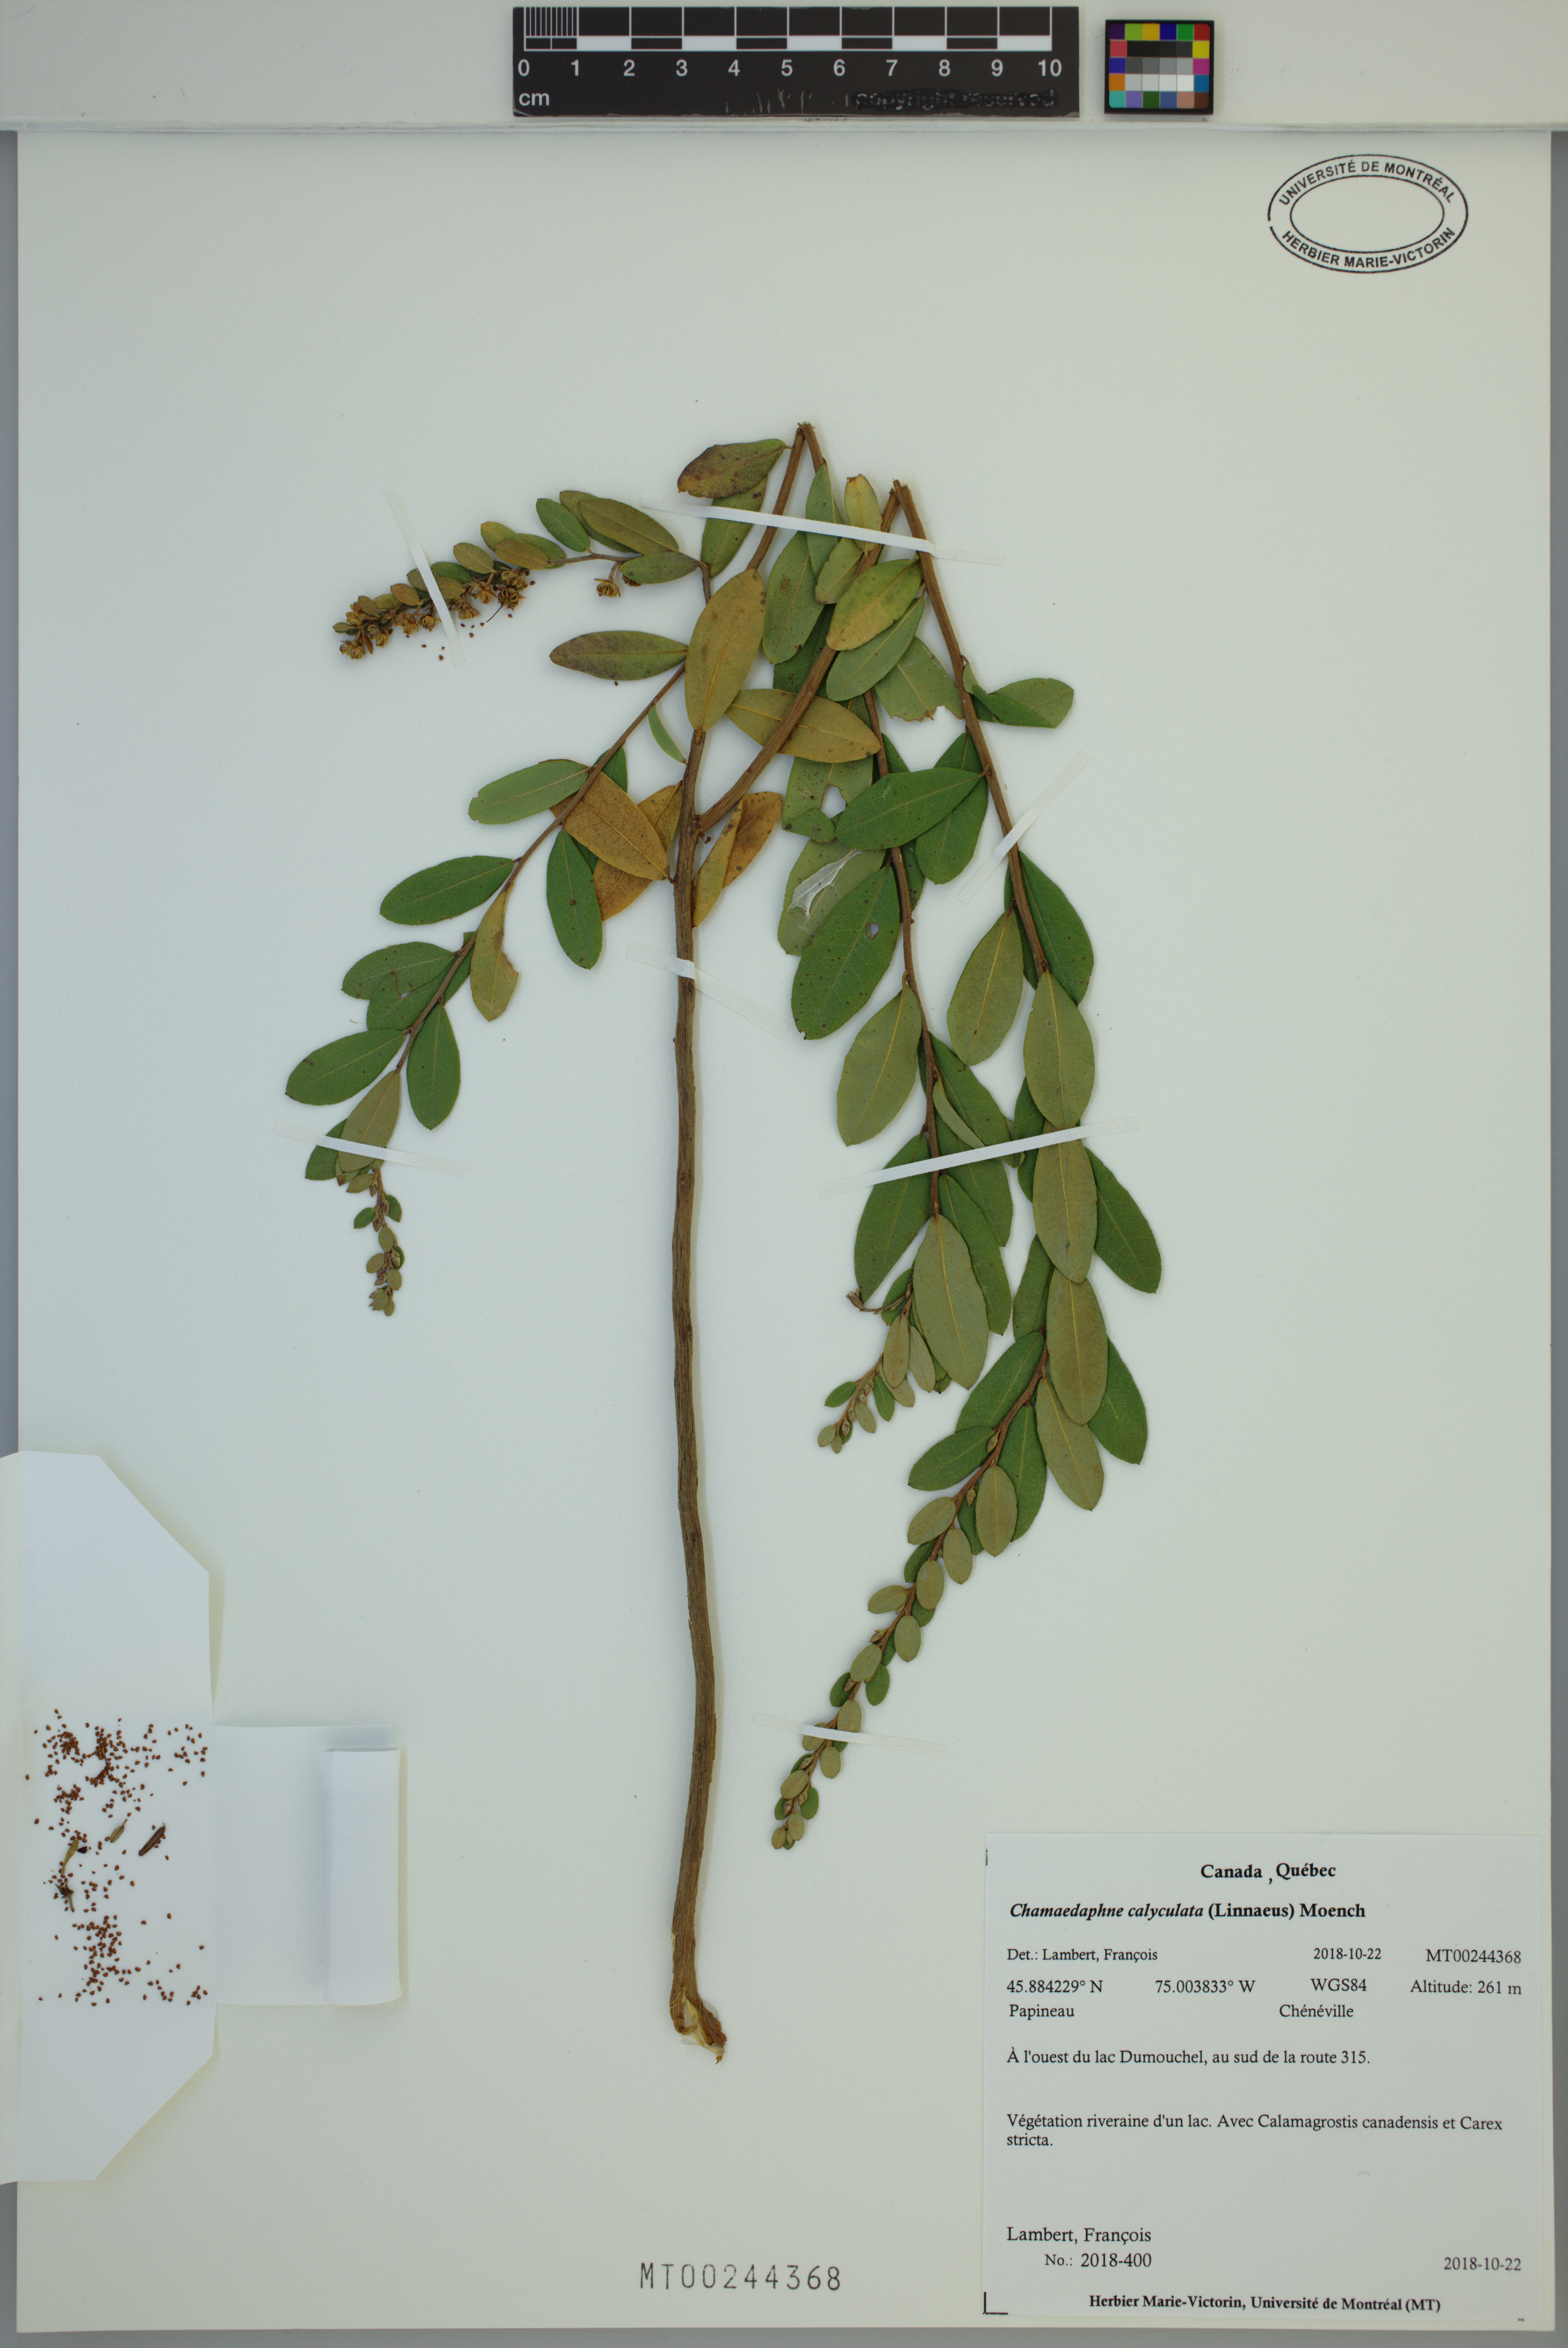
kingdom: Plantae
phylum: Tracheophyta
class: Magnoliopsida
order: Ericales
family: Ericaceae
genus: Chamaedaphne
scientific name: Chamaedaphne calyculata
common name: Leatherleaf
